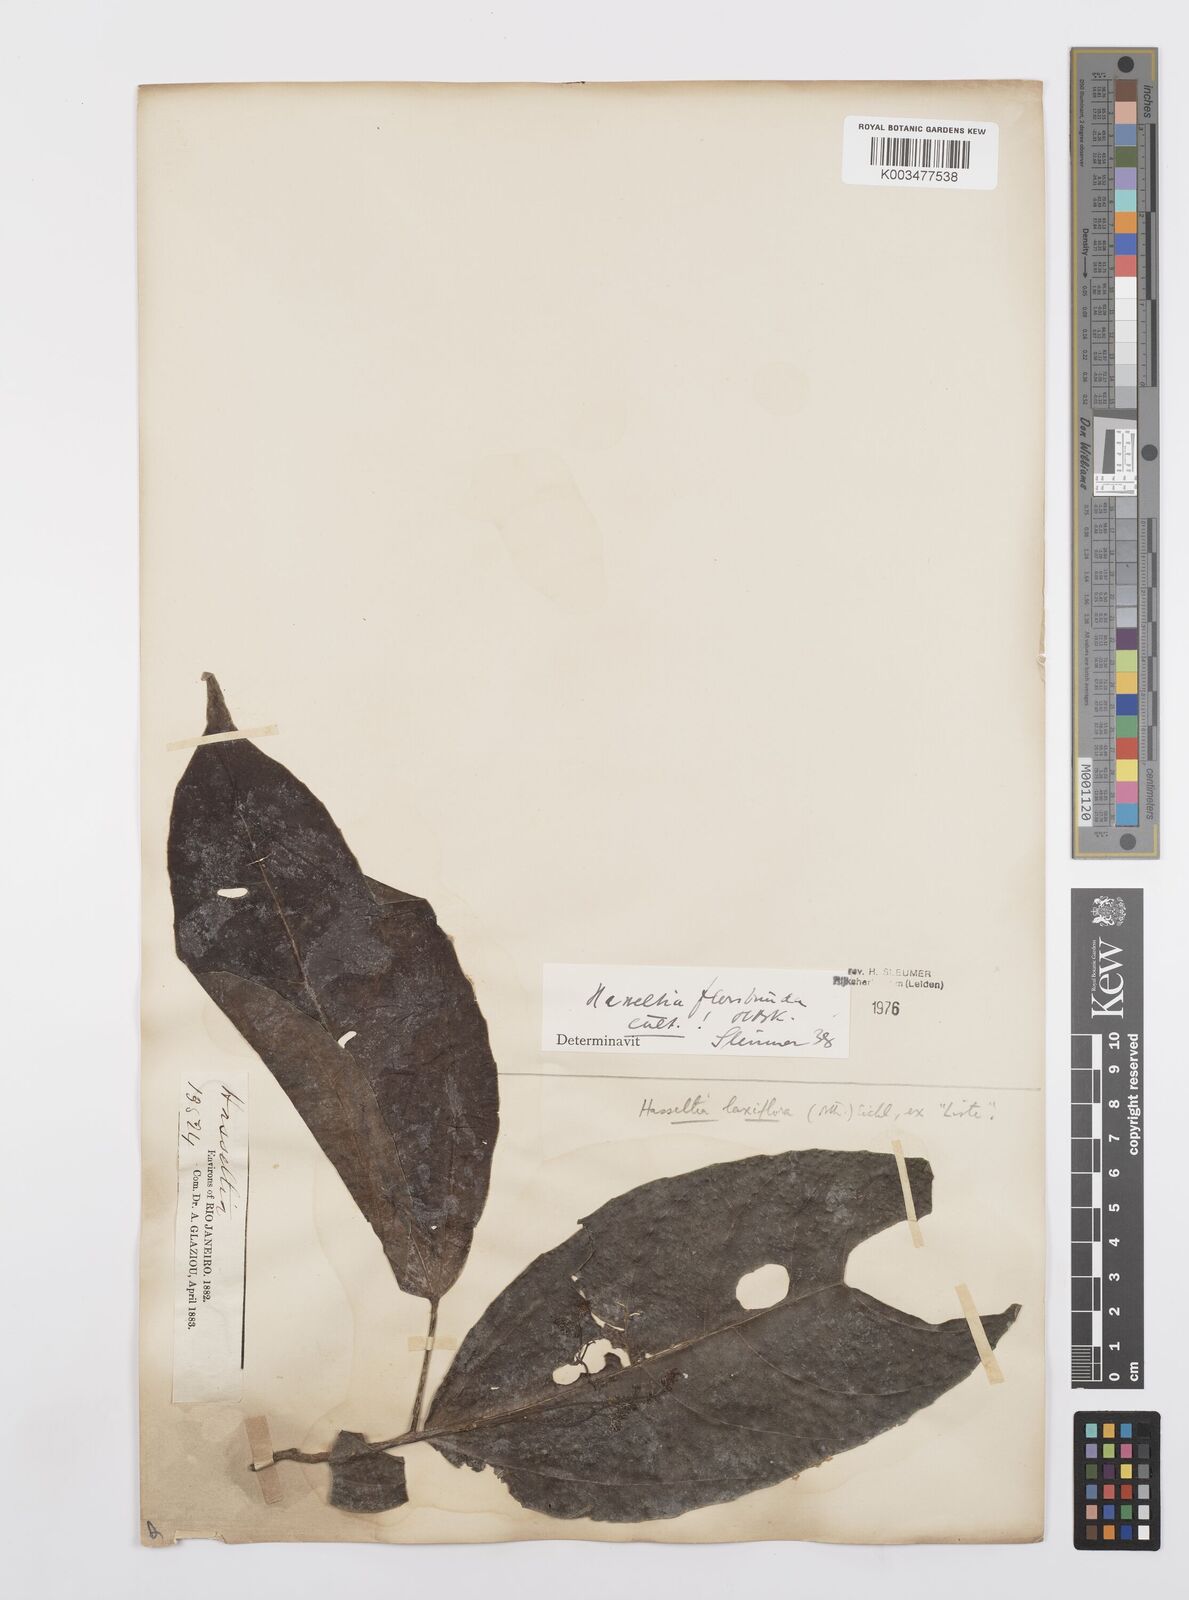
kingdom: Plantae
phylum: Tracheophyta
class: Magnoliopsida
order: Malpighiales
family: Salicaceae
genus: Hasseltia
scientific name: Hasseltia floribunda
